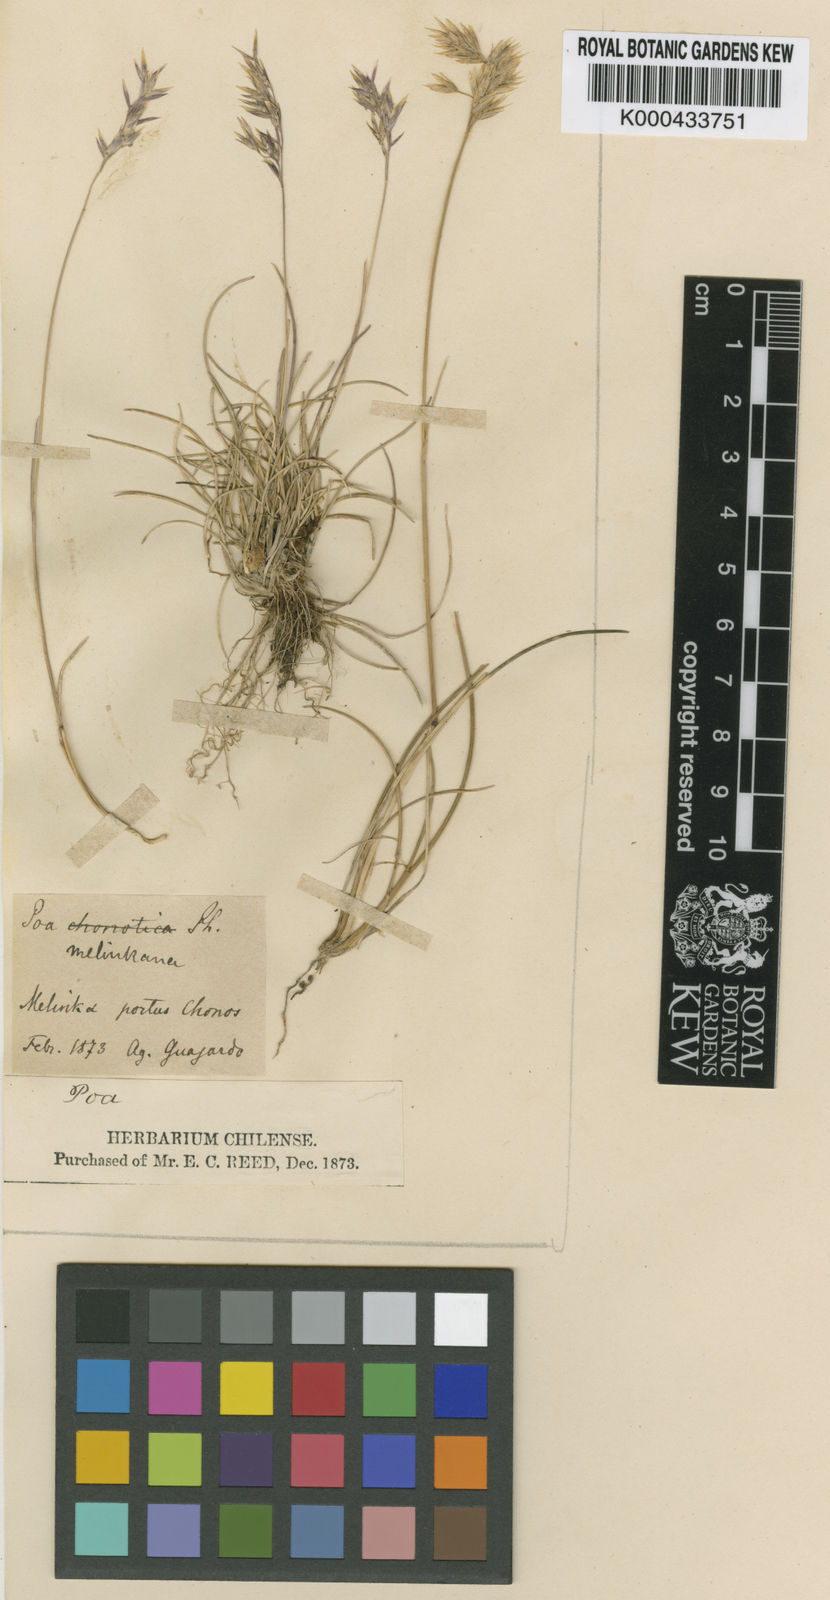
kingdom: Plantae
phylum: Tracheophyta
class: Liliopsida
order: Poales
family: Poaceae
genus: Poa
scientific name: Poa
